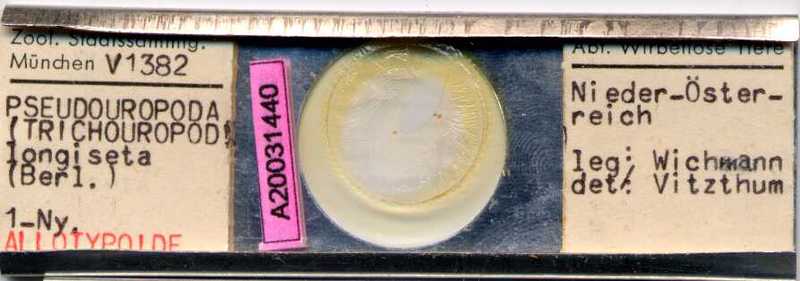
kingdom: Animalia
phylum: Arthropoda
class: Arachnida
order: Mesostigmata
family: Trematuridae
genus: Trichouropoda
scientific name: Trichouropoda vitzthumilongiseta
